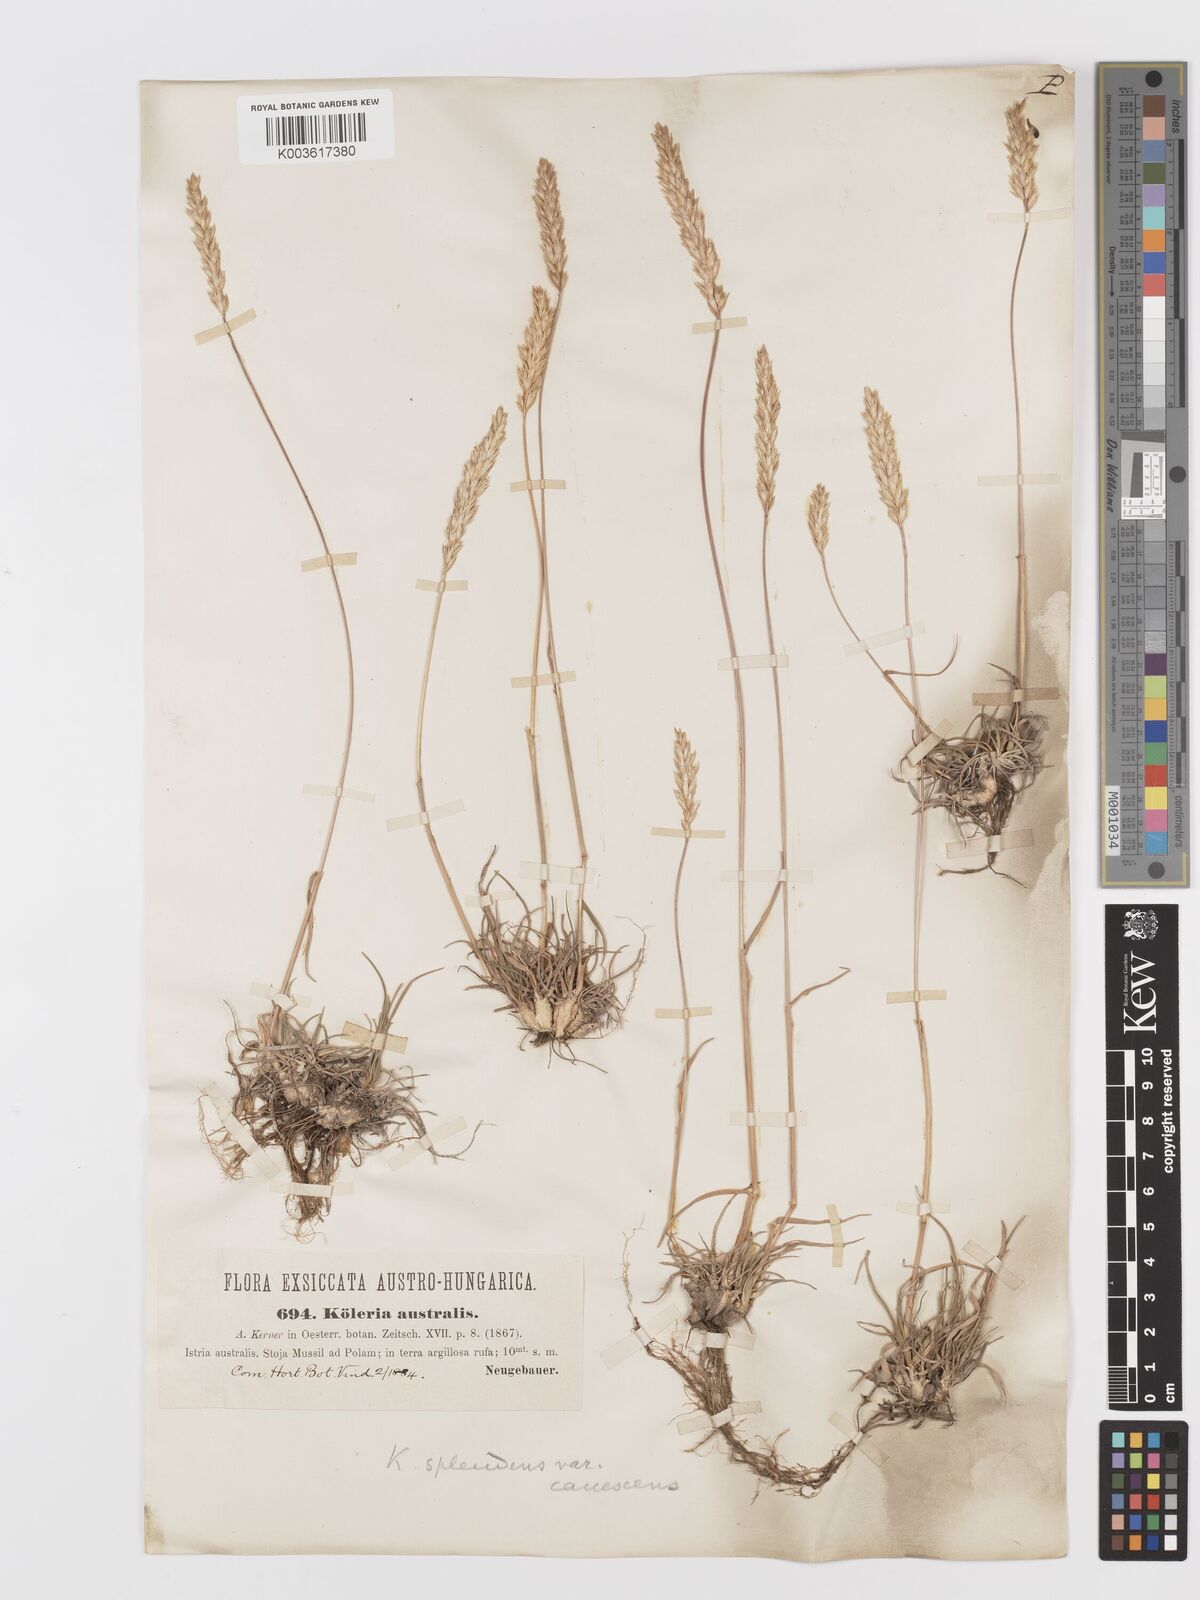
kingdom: Plantae
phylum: Tracheophyta
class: Liliopsida
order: Poales
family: Poaceae
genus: Koeleria
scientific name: Koeleria splendens
